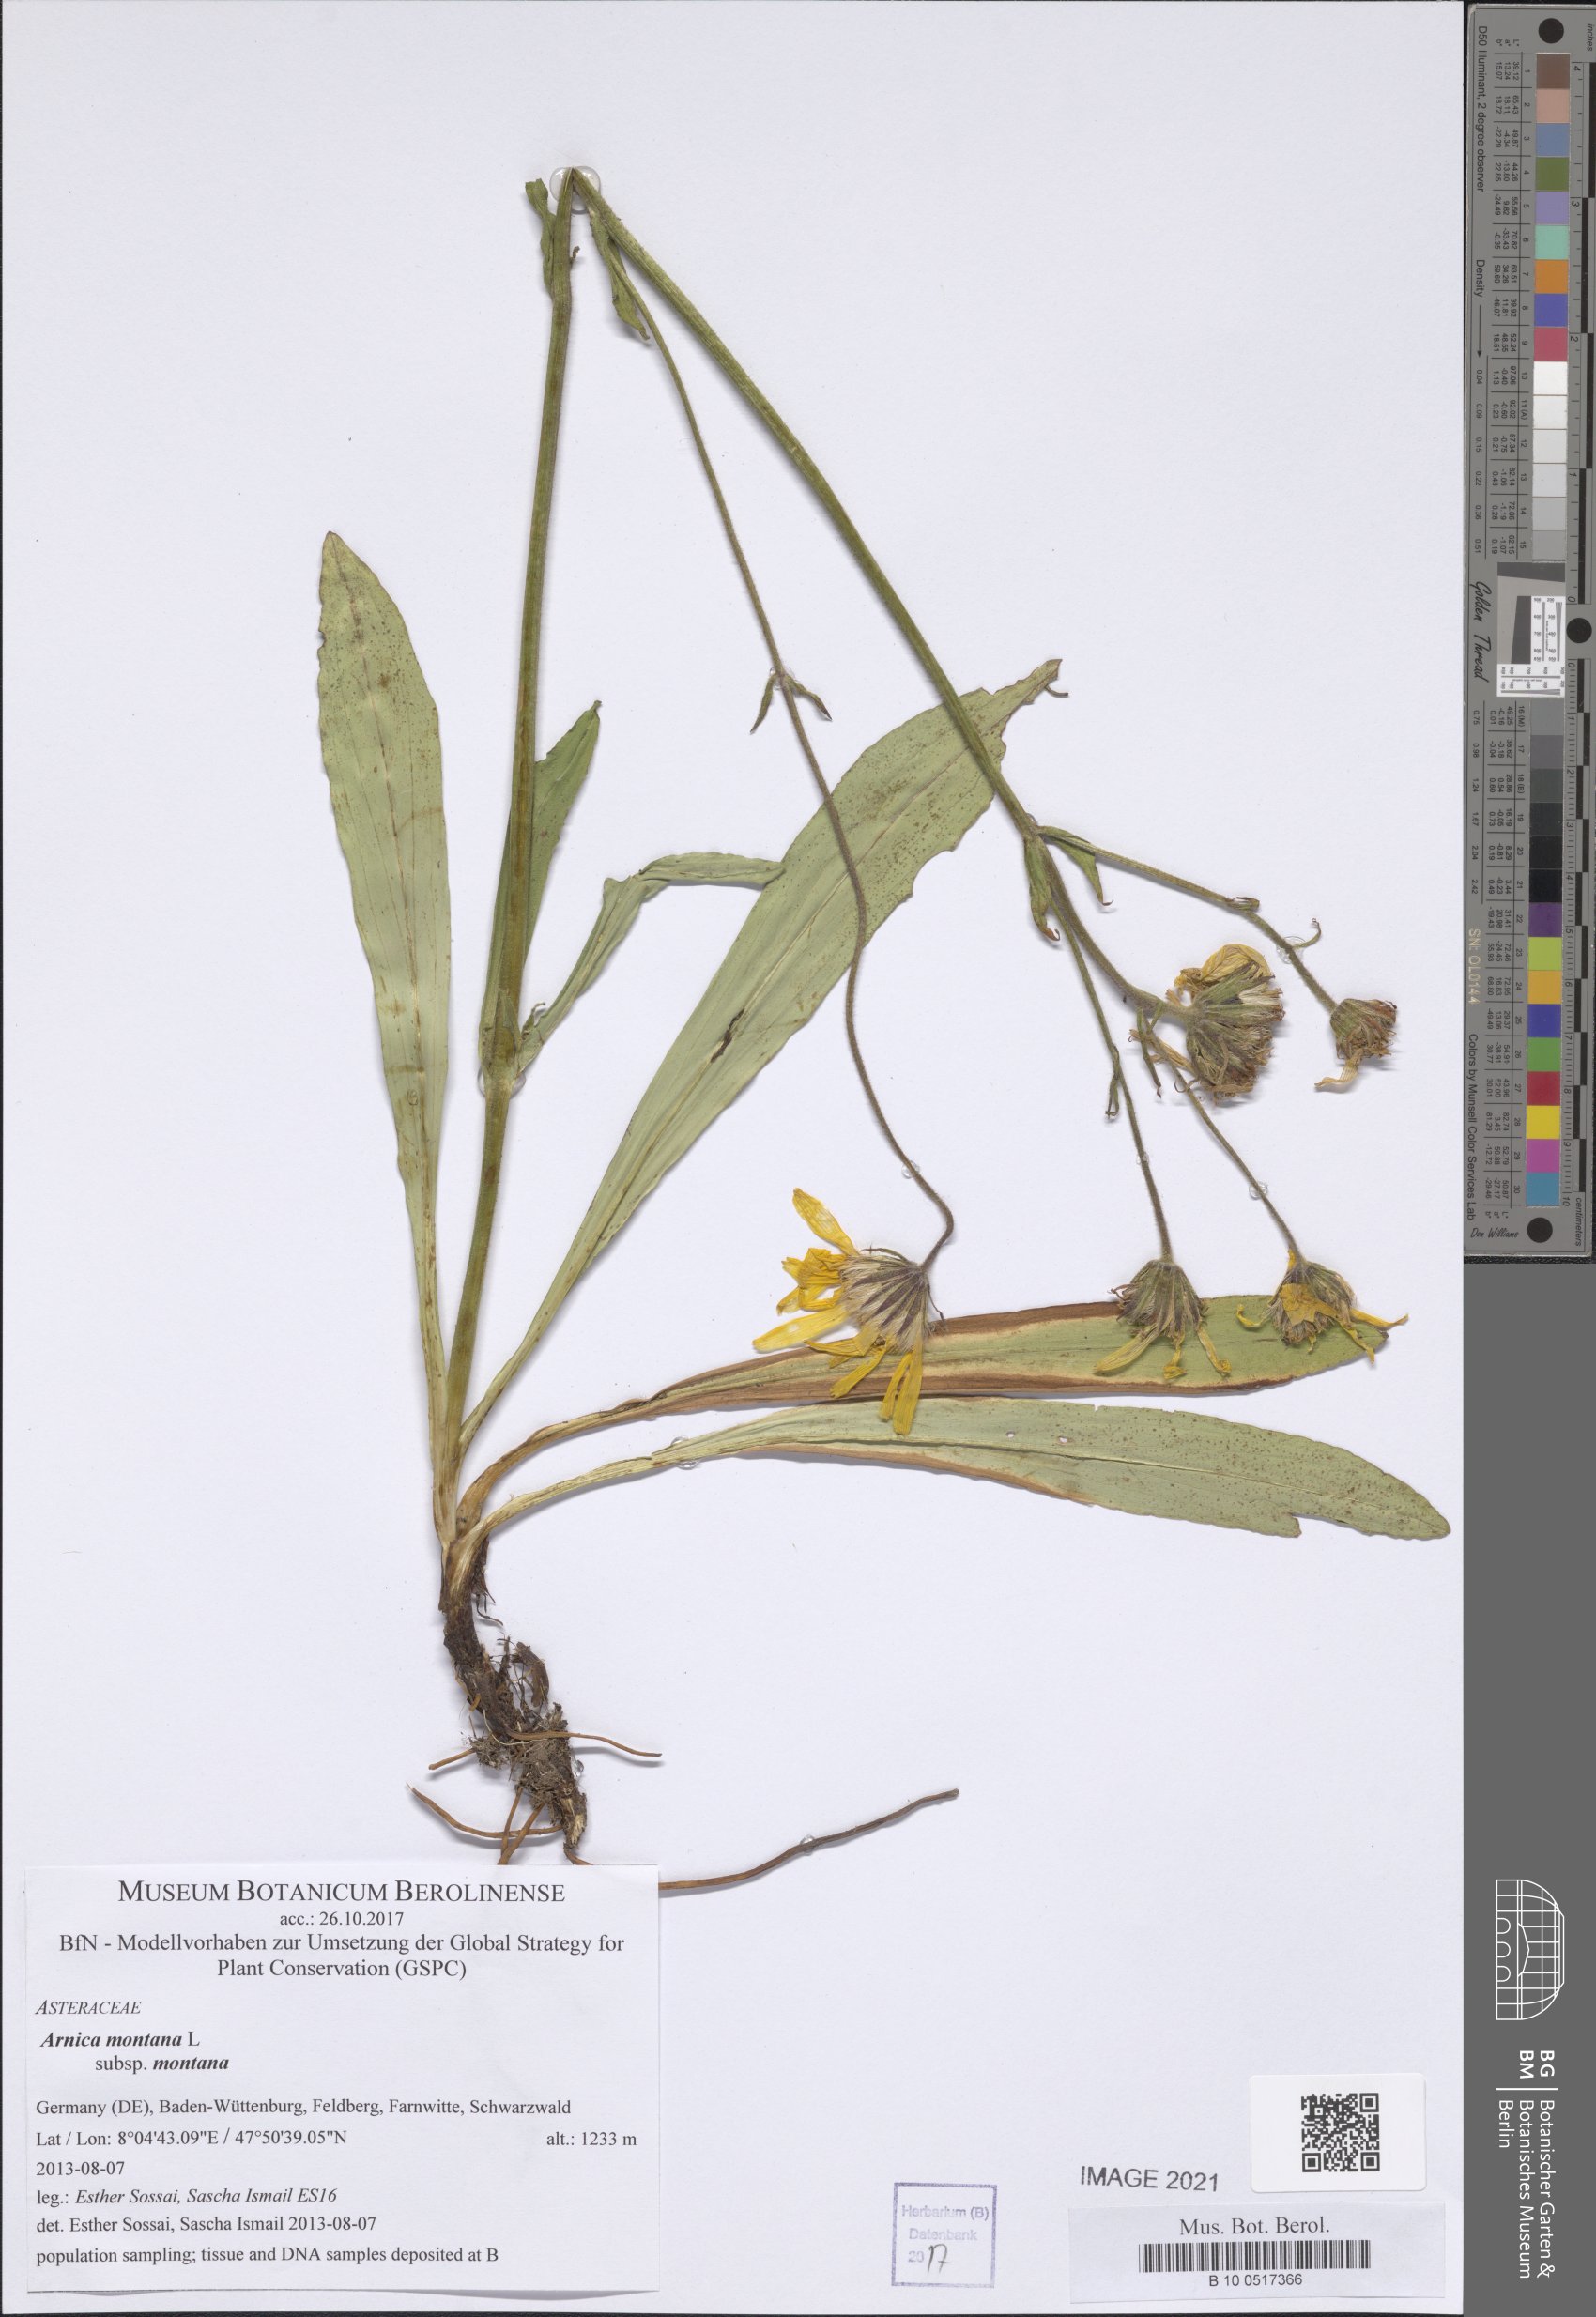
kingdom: Plantae
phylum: Tracheophyta
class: Magnoliopsida
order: Asterales
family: Asteraceae
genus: Arnica
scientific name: Arnica montana
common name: Leopard's bane
